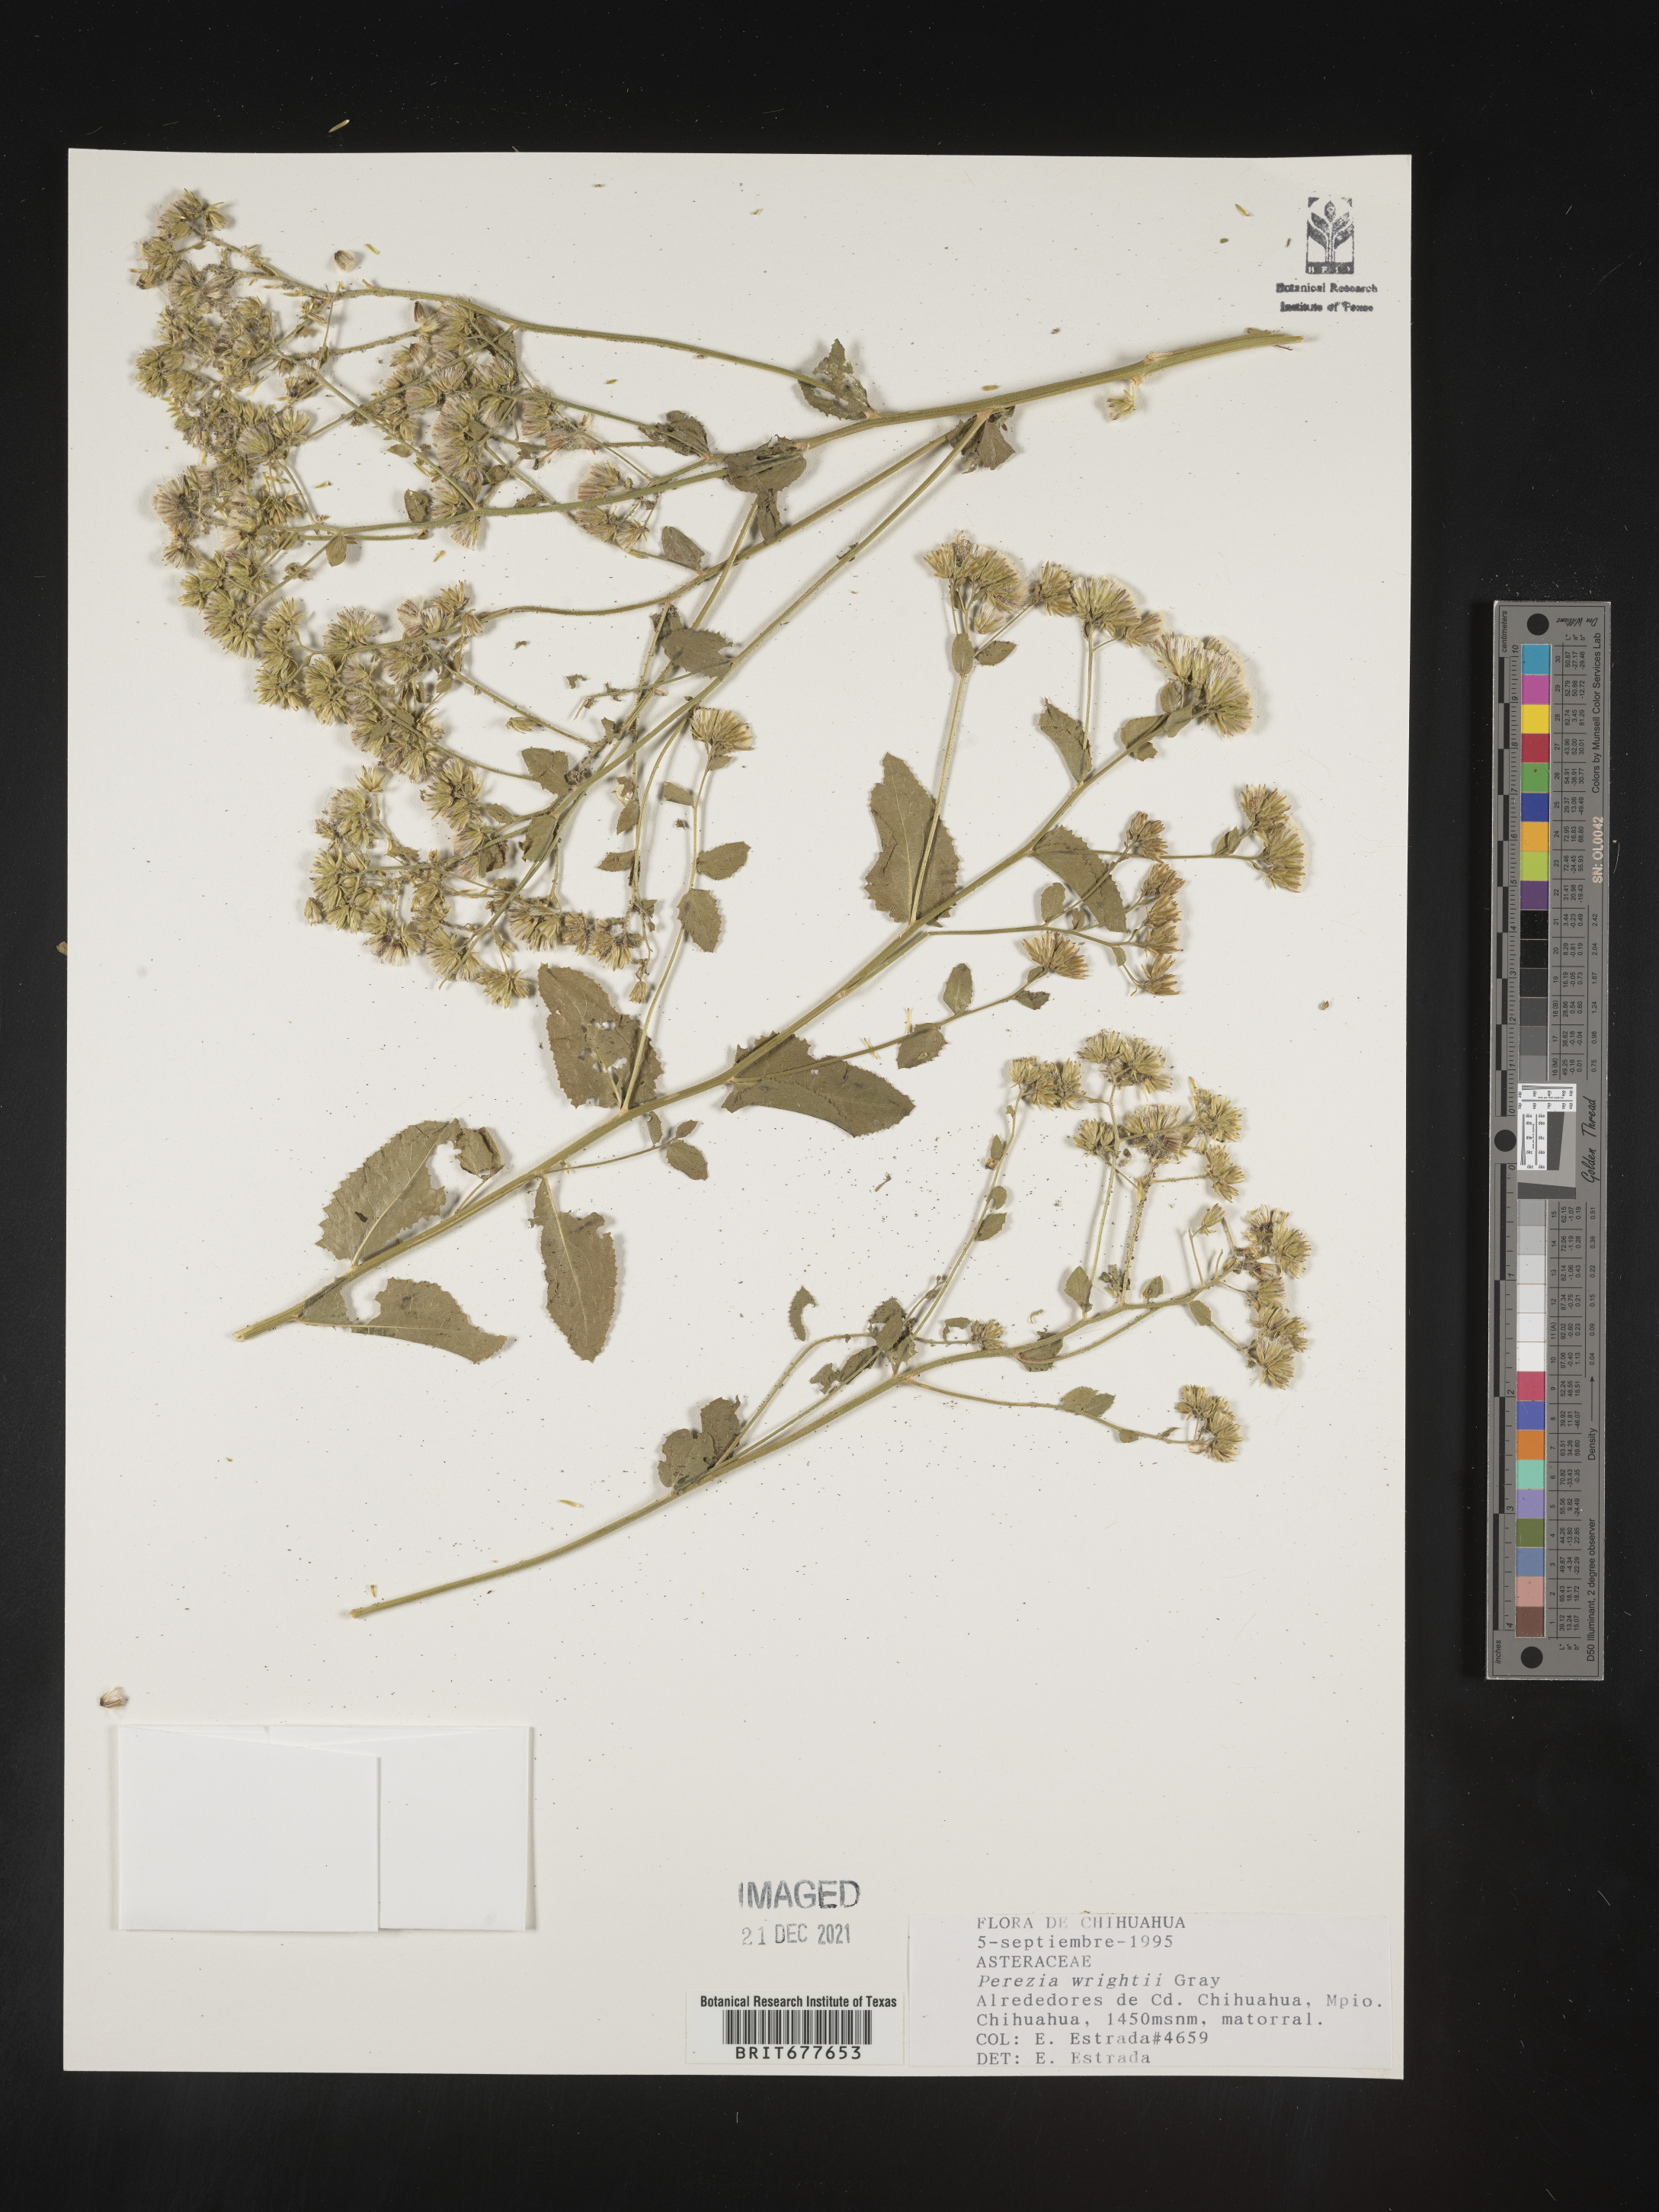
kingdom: Plantae
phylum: Tracheophyta
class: Magnoliopsida
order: Asterales
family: Asteraceae
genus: Perezia
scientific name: Perezia
